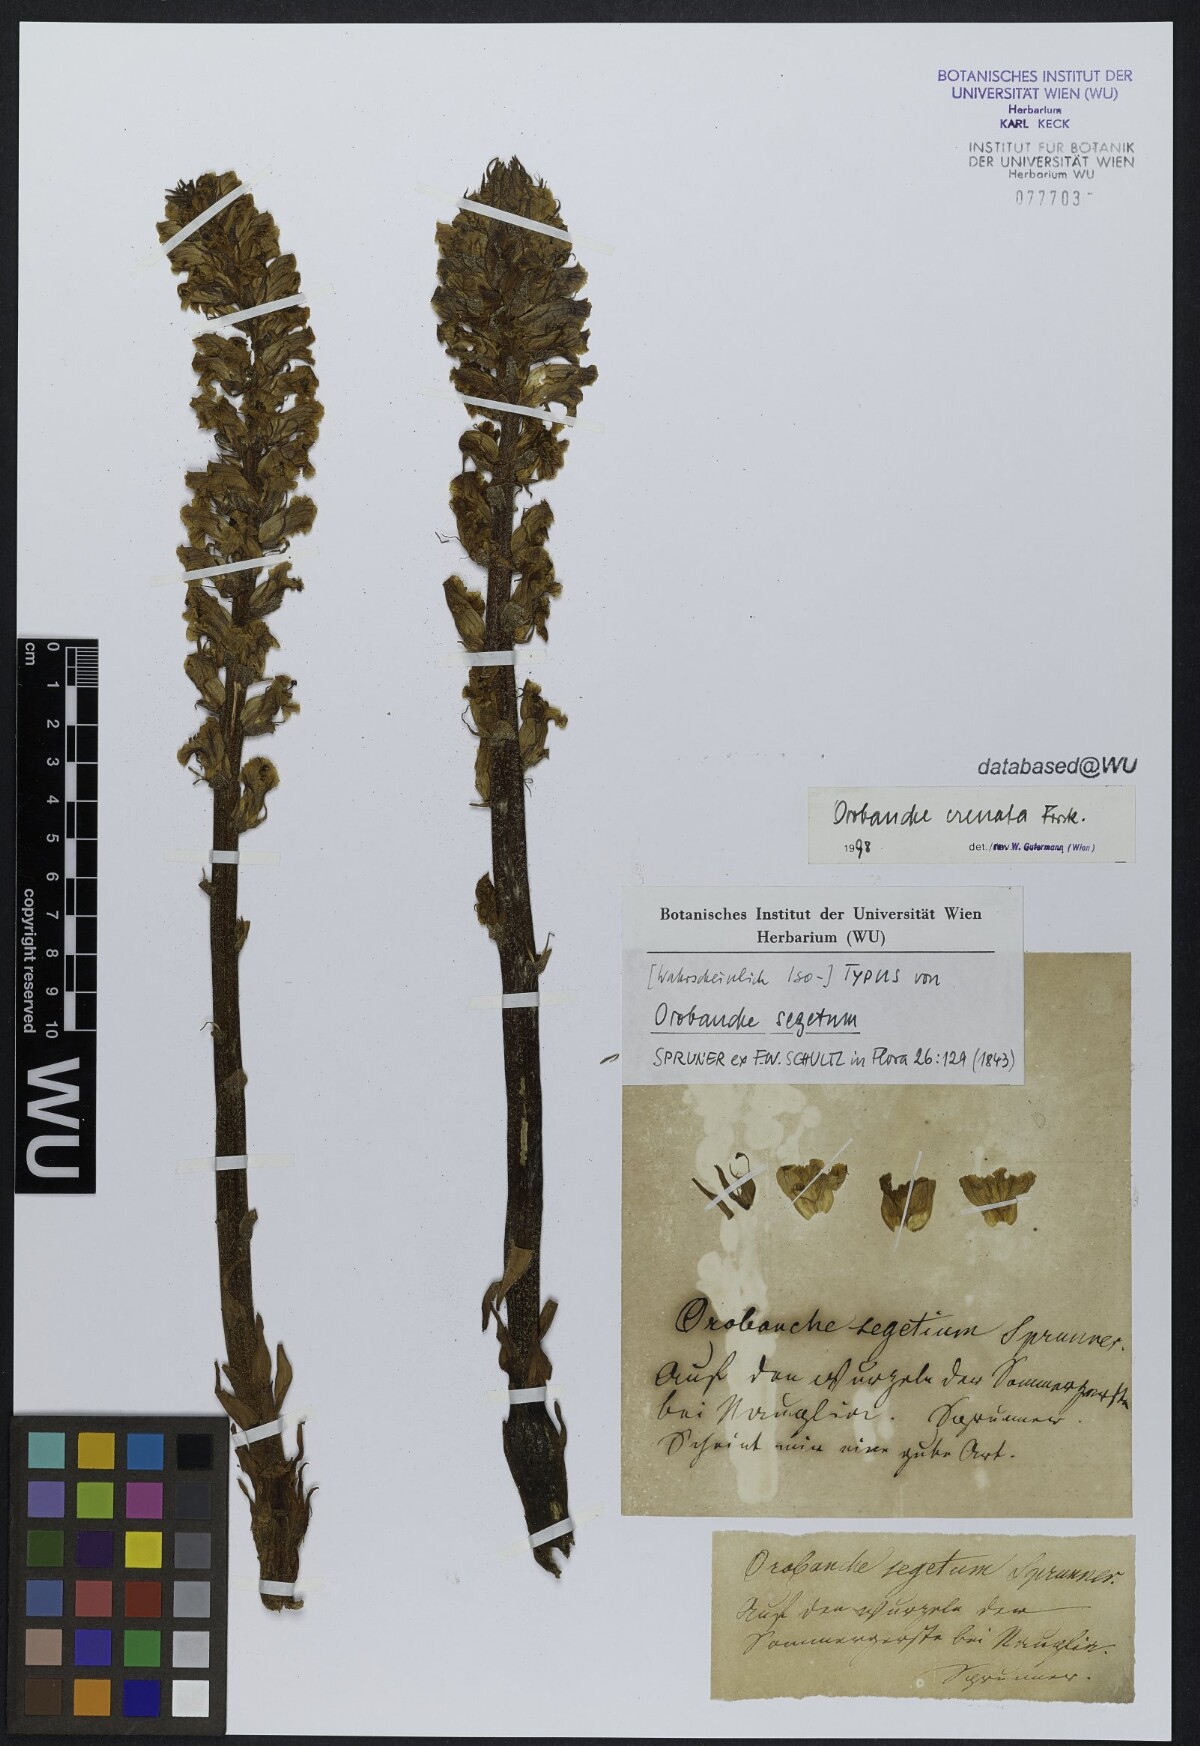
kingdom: Plantae
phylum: Tracheophyta
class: Magnoliopsida
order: Lamiales
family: Orobanchaceae
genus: Orobanche
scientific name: Orobanche crenata
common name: Bean broomrape
